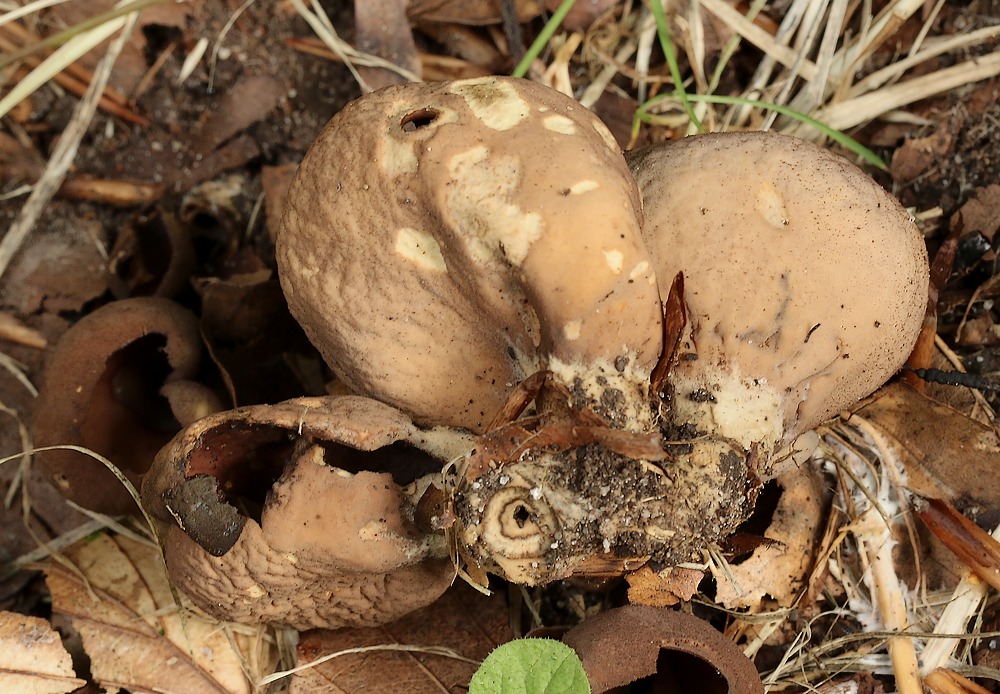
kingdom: Fungi
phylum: Ascomycota
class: Pezizomycetes
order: Pezizales
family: Otideaceae
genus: Otidea
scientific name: Otidea bufonia
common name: brun ørebæger
